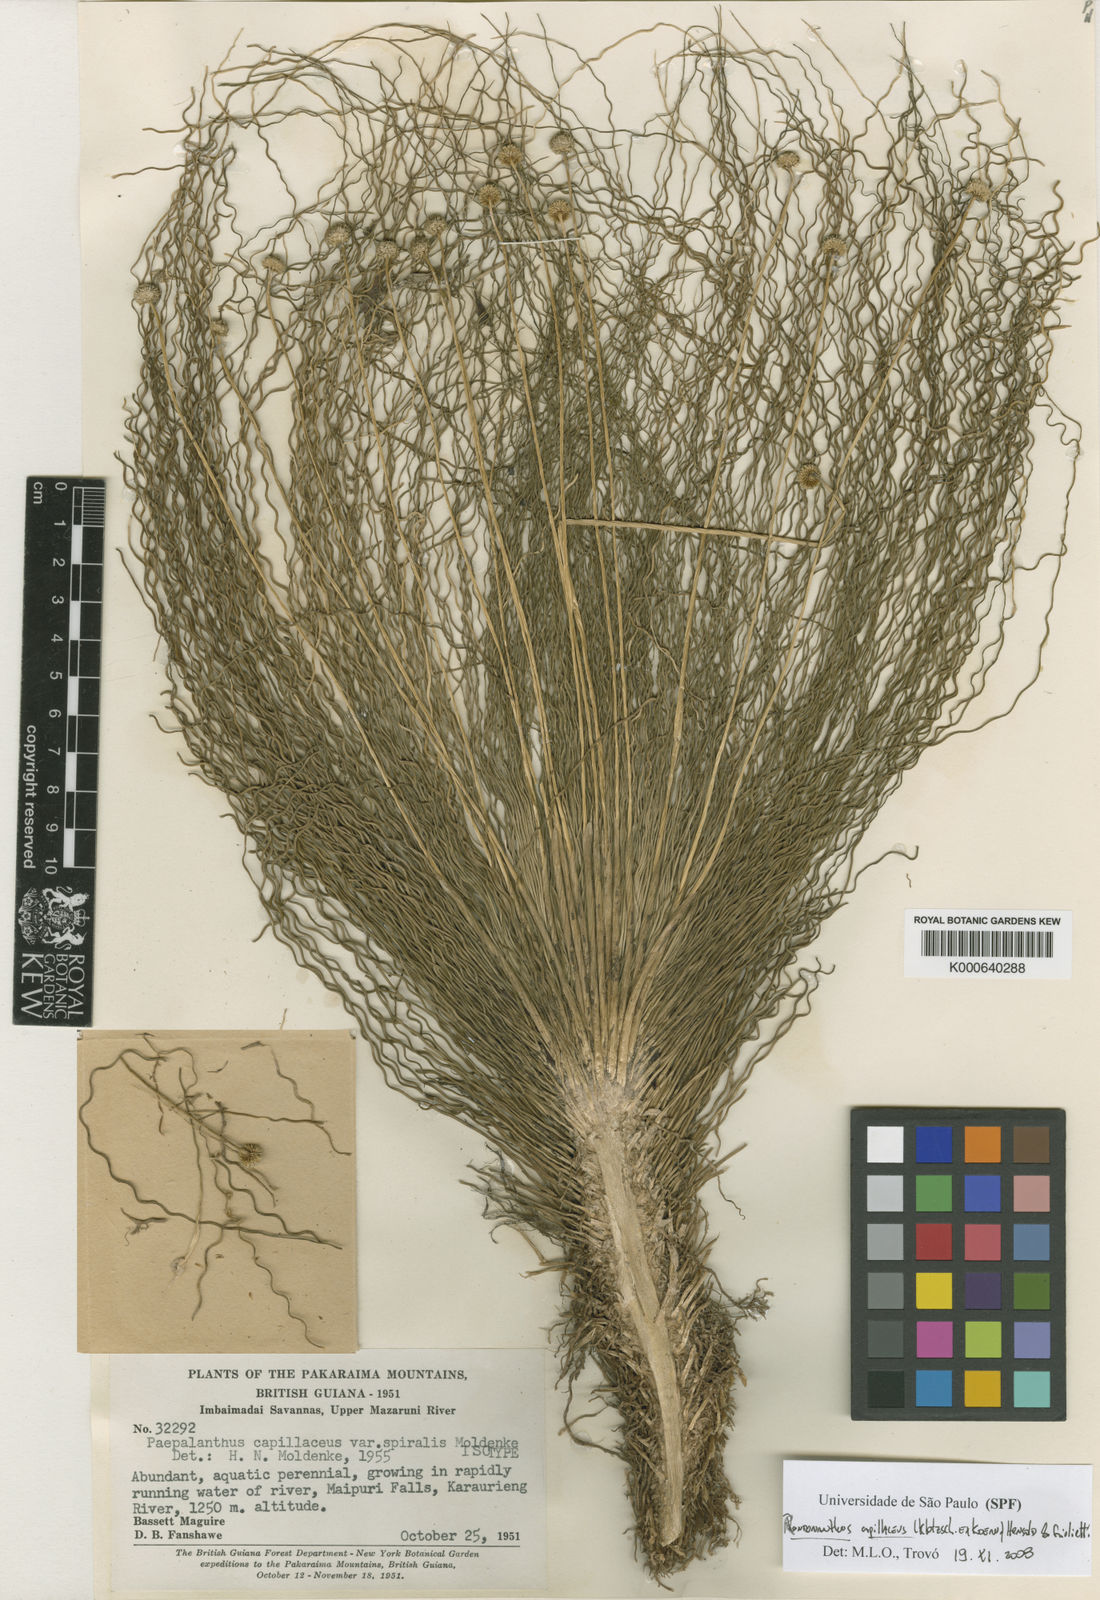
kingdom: Plantae
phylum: Tracheophyta
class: Liliopsida
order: Poales
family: Eriocaulaceae
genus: Rondonanthus
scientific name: Rondonanthus
